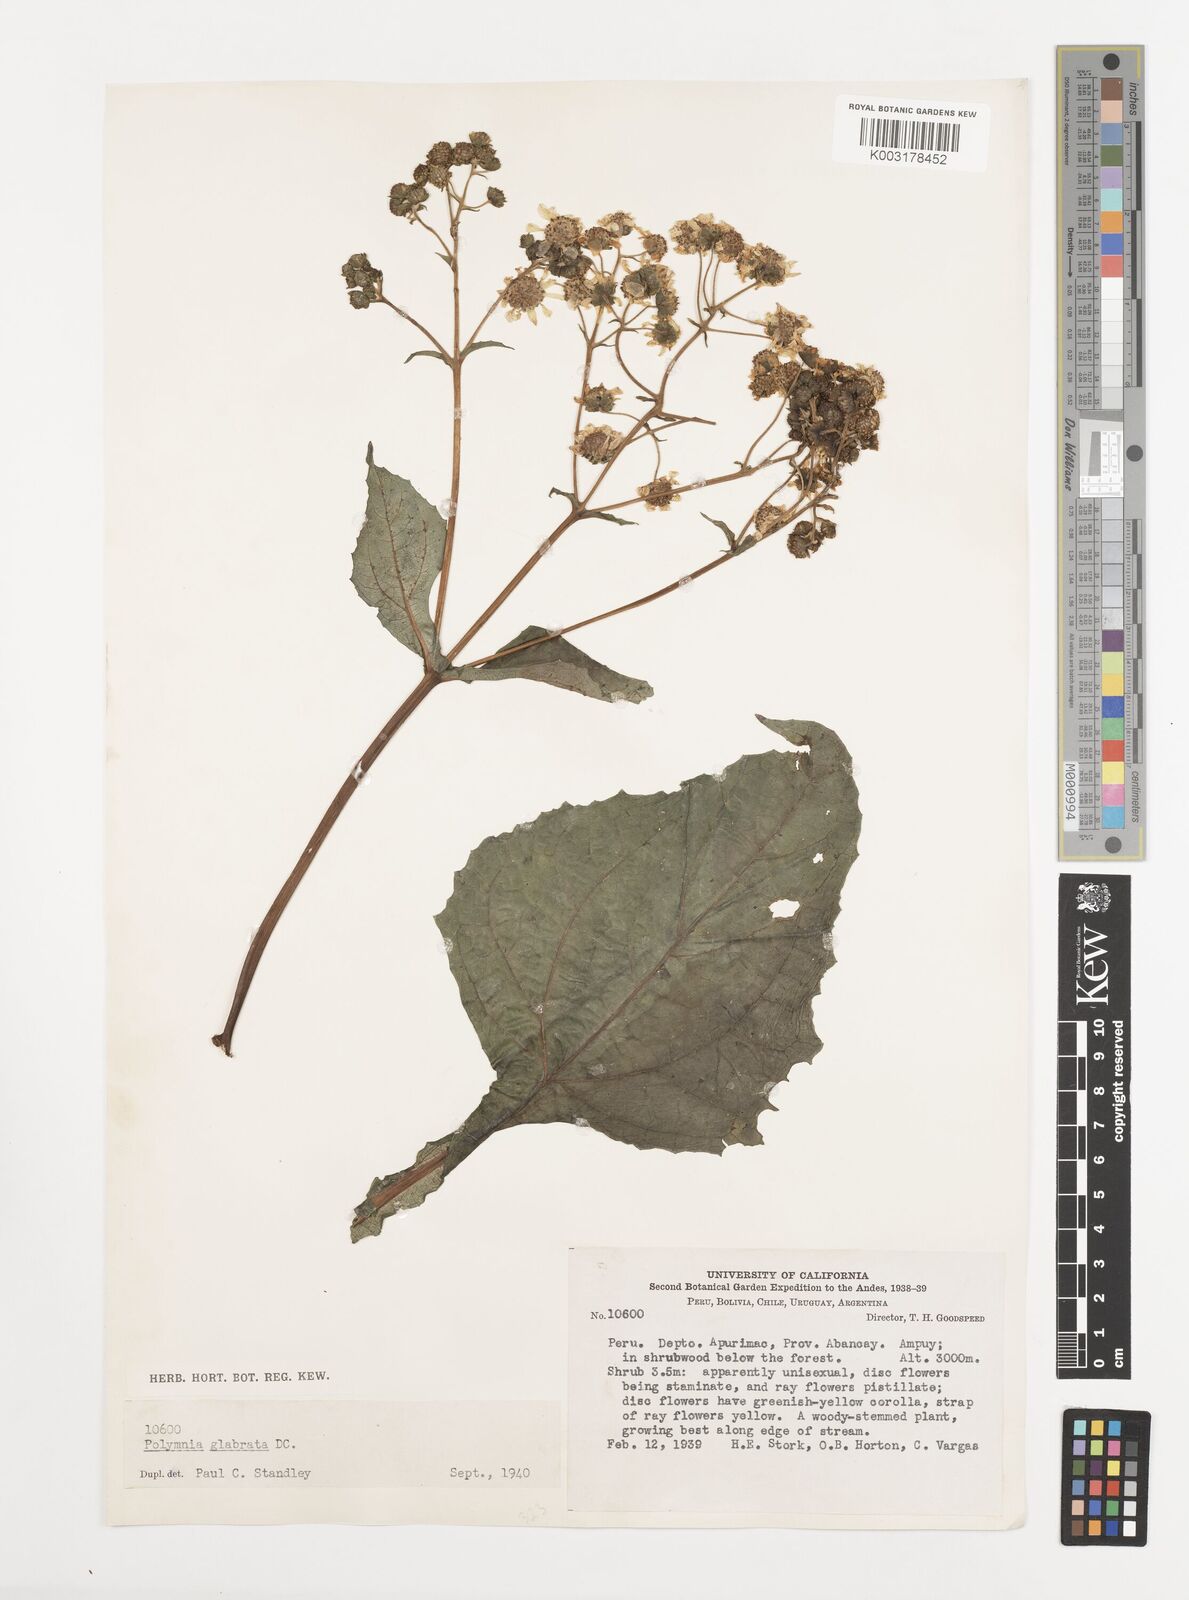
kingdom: Plantae
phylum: Tracheophyta
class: Magnoliopsida
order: Asterales
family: Asteraceae
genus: Smallanthus
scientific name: Smallanthus glabratus
